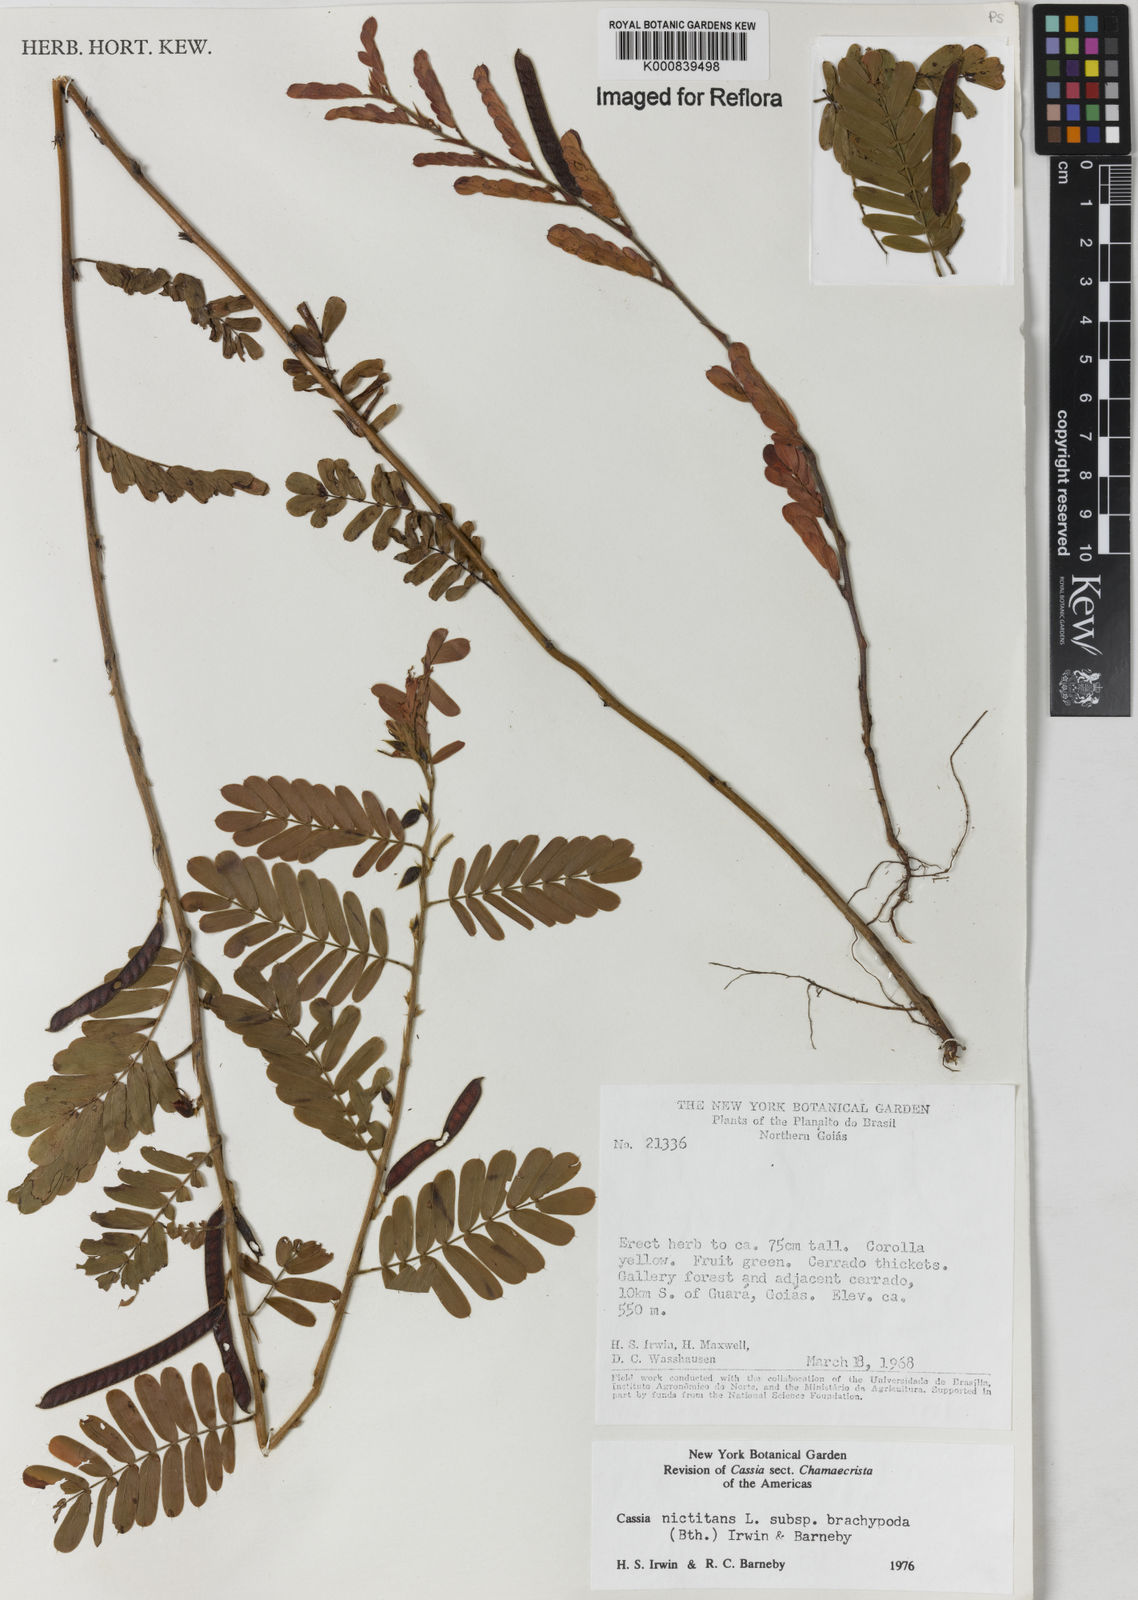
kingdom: Plantae
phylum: Tracheophyta
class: Magnoliopsida
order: Fabales
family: Fabaceae
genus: Chamaecrista
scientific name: Chamaecrista nictitans
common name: Sensitive cassia
